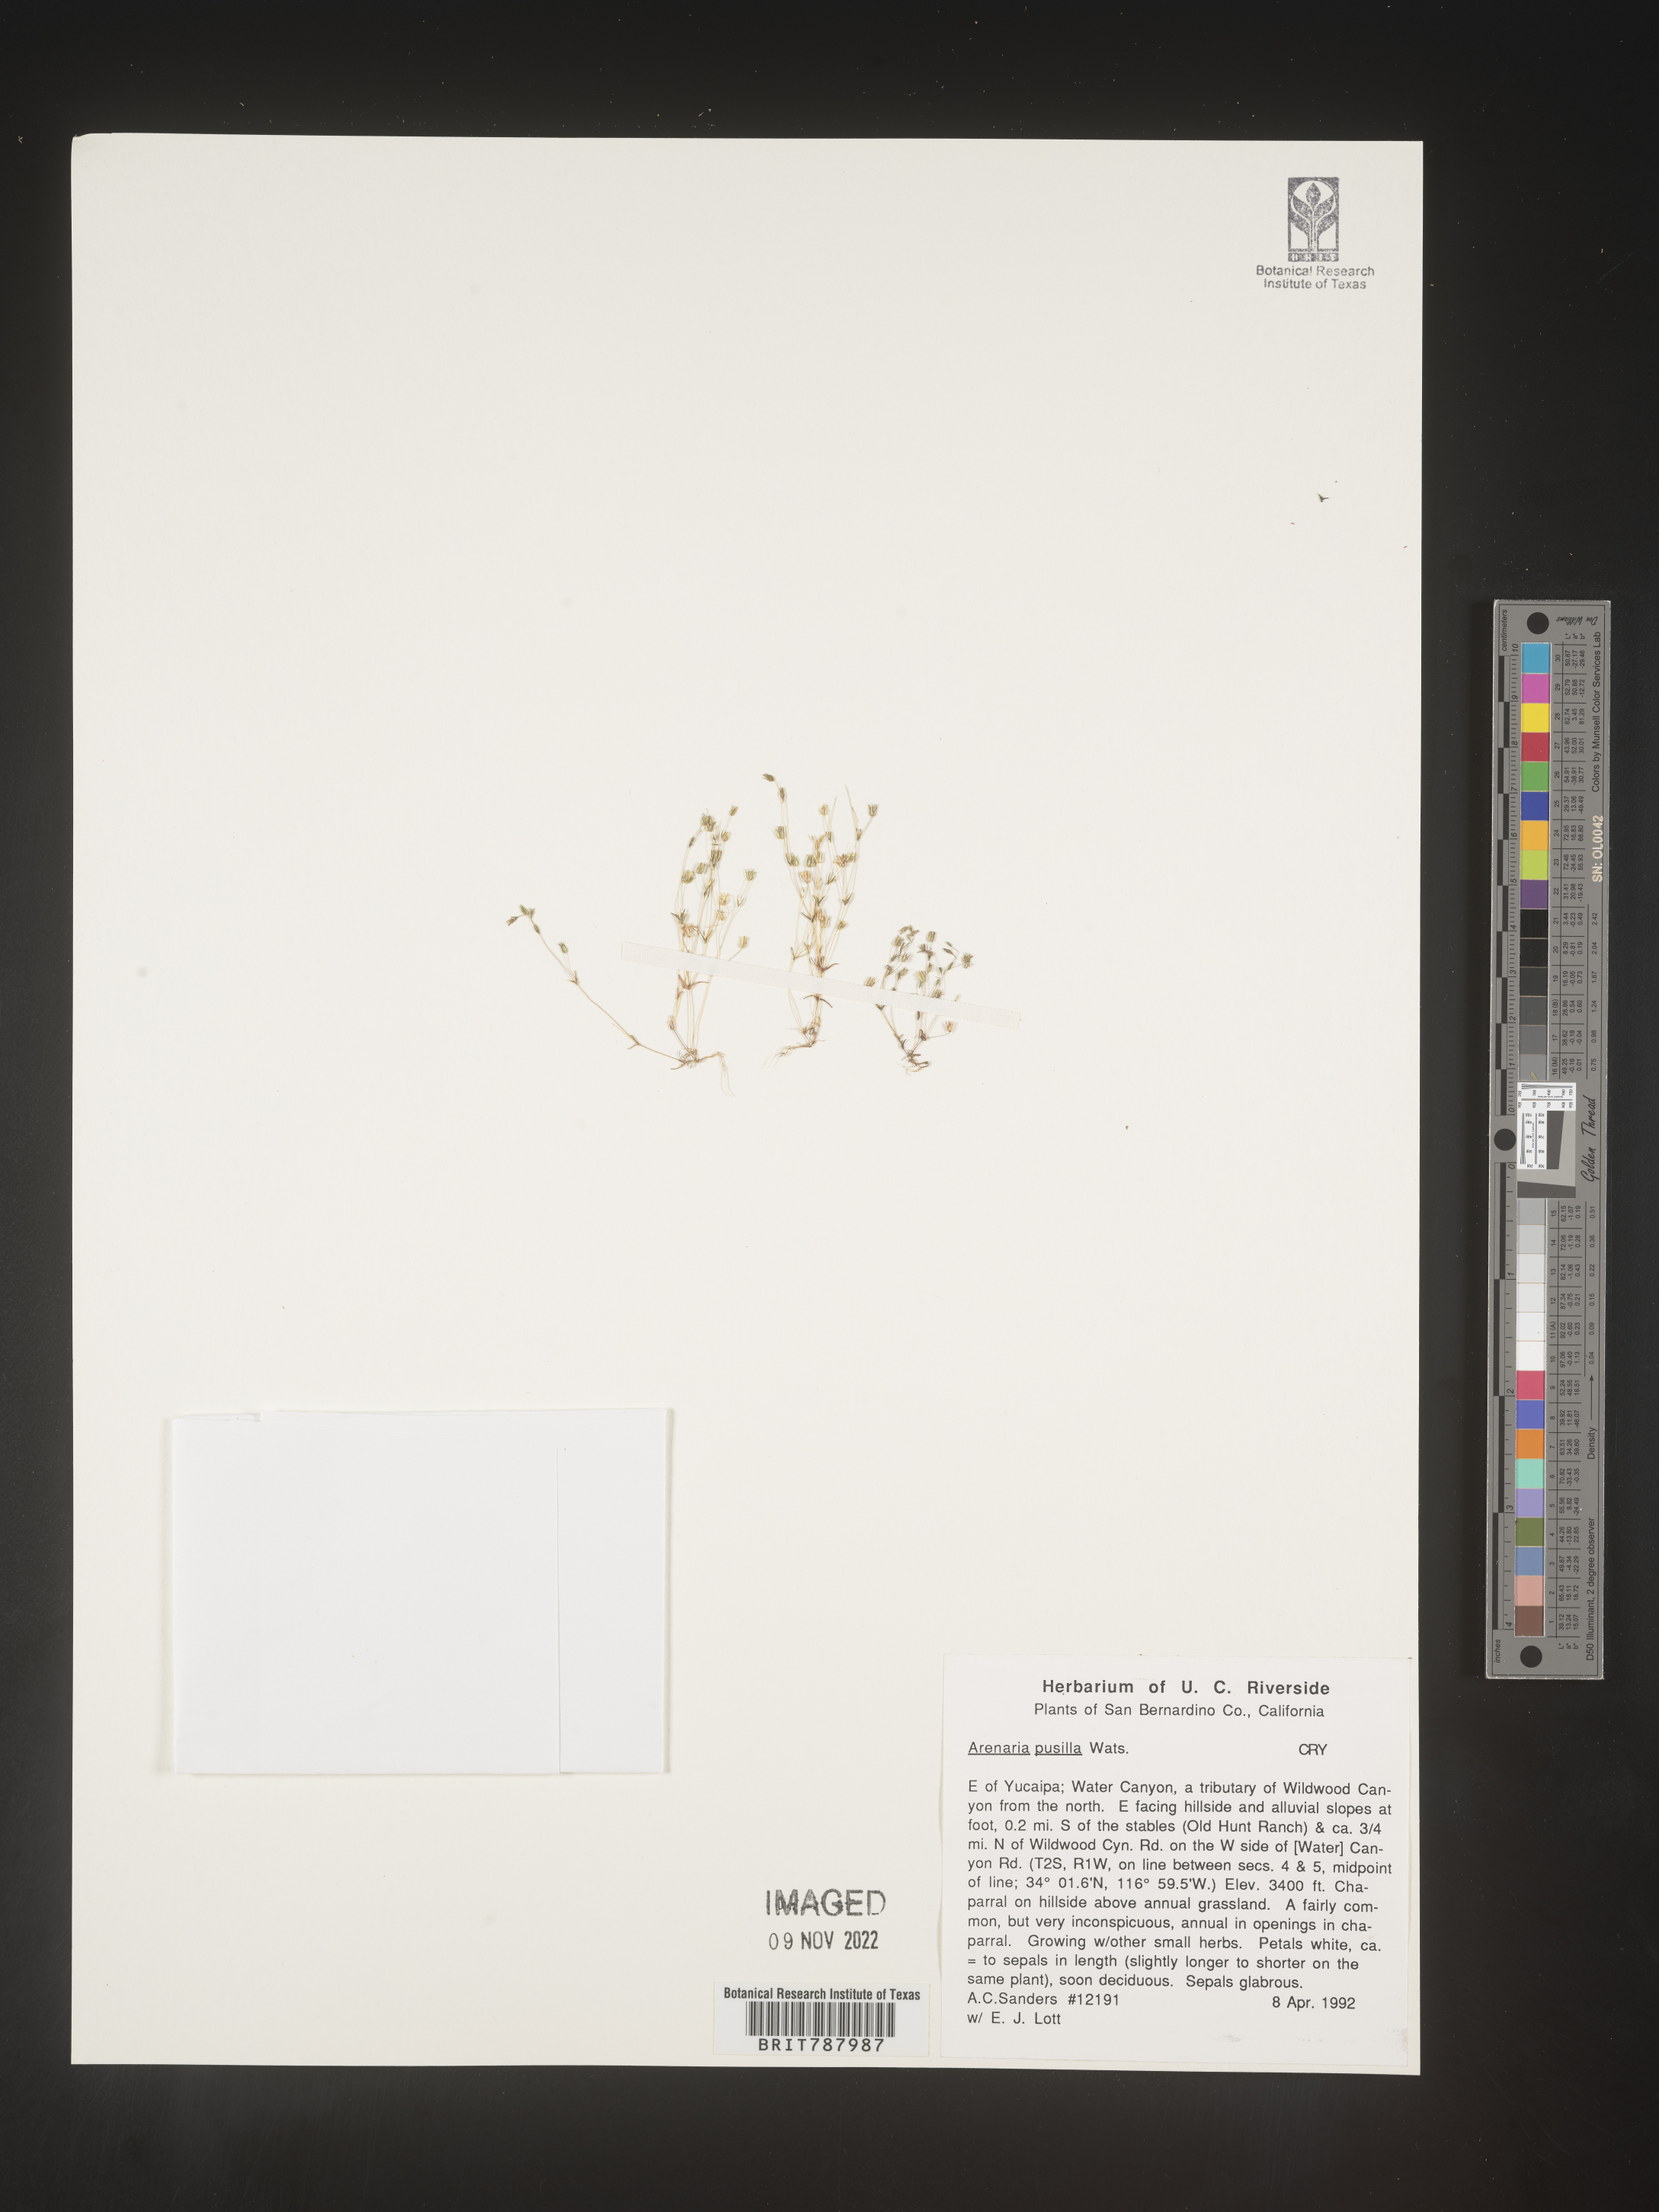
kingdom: Plantae
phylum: Tracheophyta
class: Magnoliopsida
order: Caryophyllales
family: Caryophyllaceae
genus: Arenaria
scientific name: Arenaria
